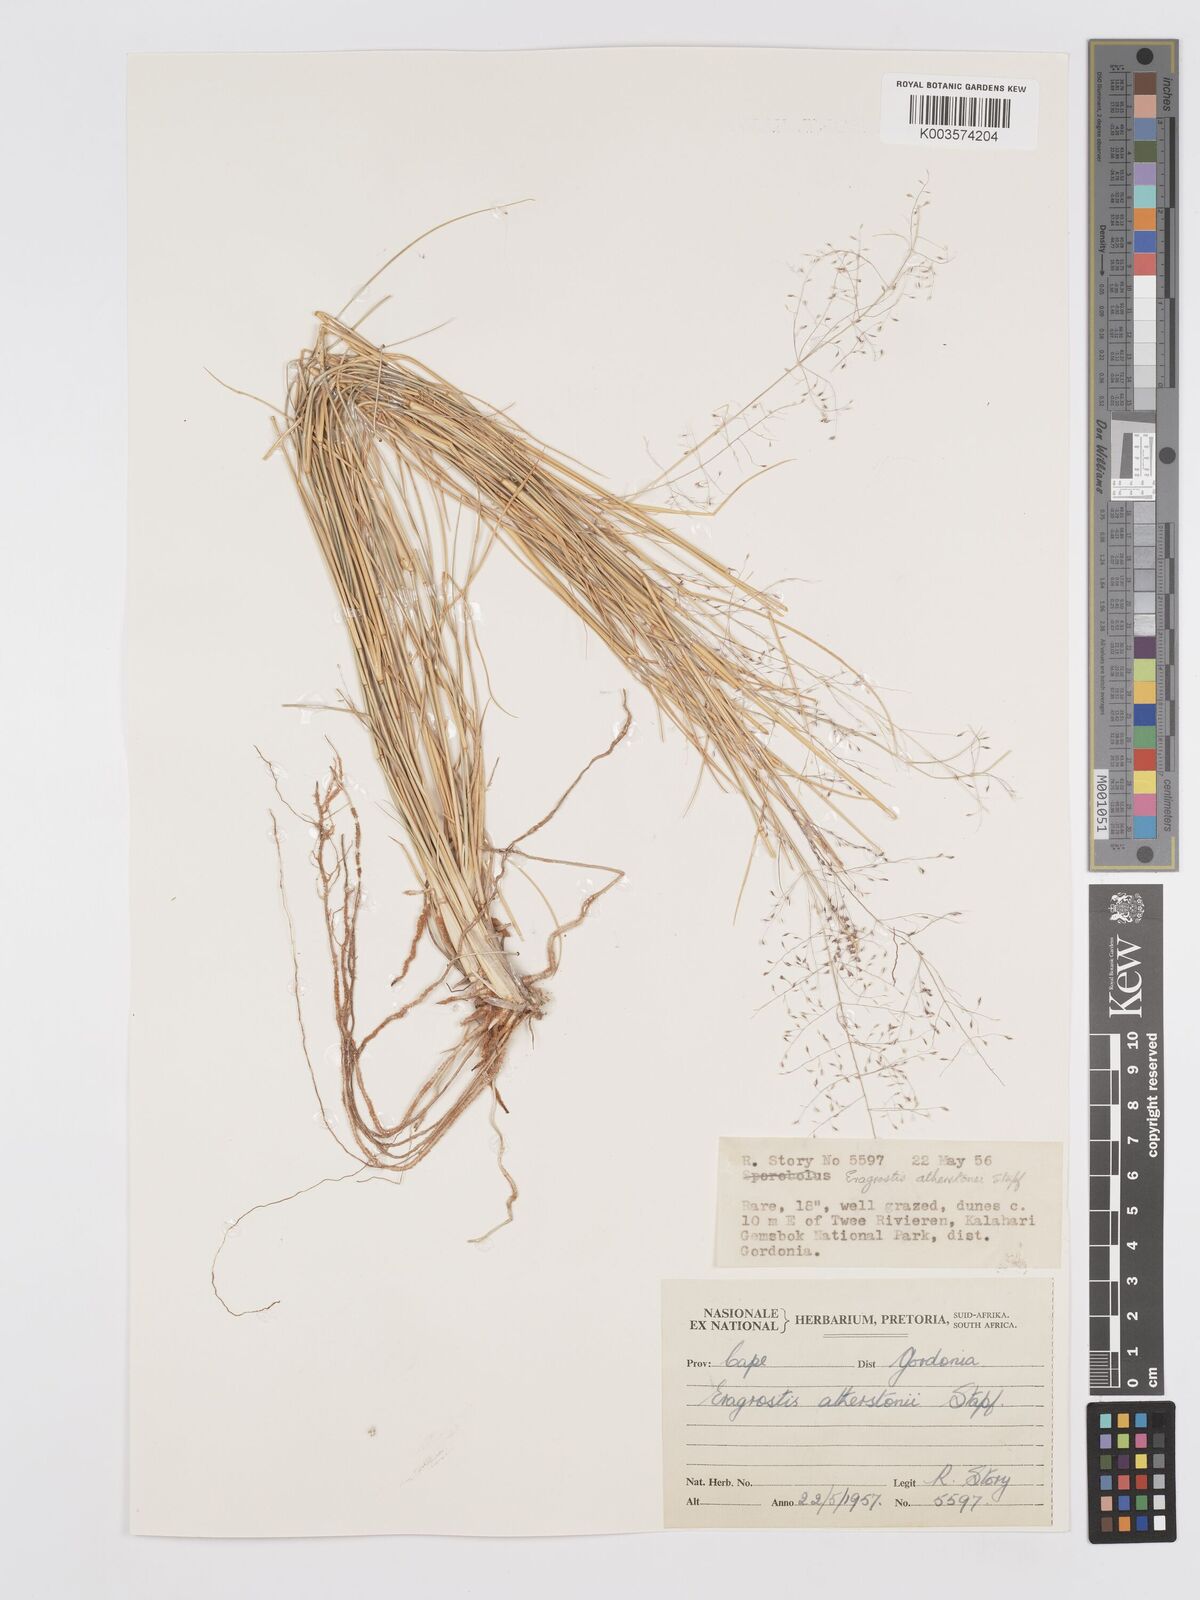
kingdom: Plantae
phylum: Tracheophyta
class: Liliopsida
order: Poales
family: Poaceae
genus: Eragrostis
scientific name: Eragrostis cylindriflora
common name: Cylinderflower lovegrass
